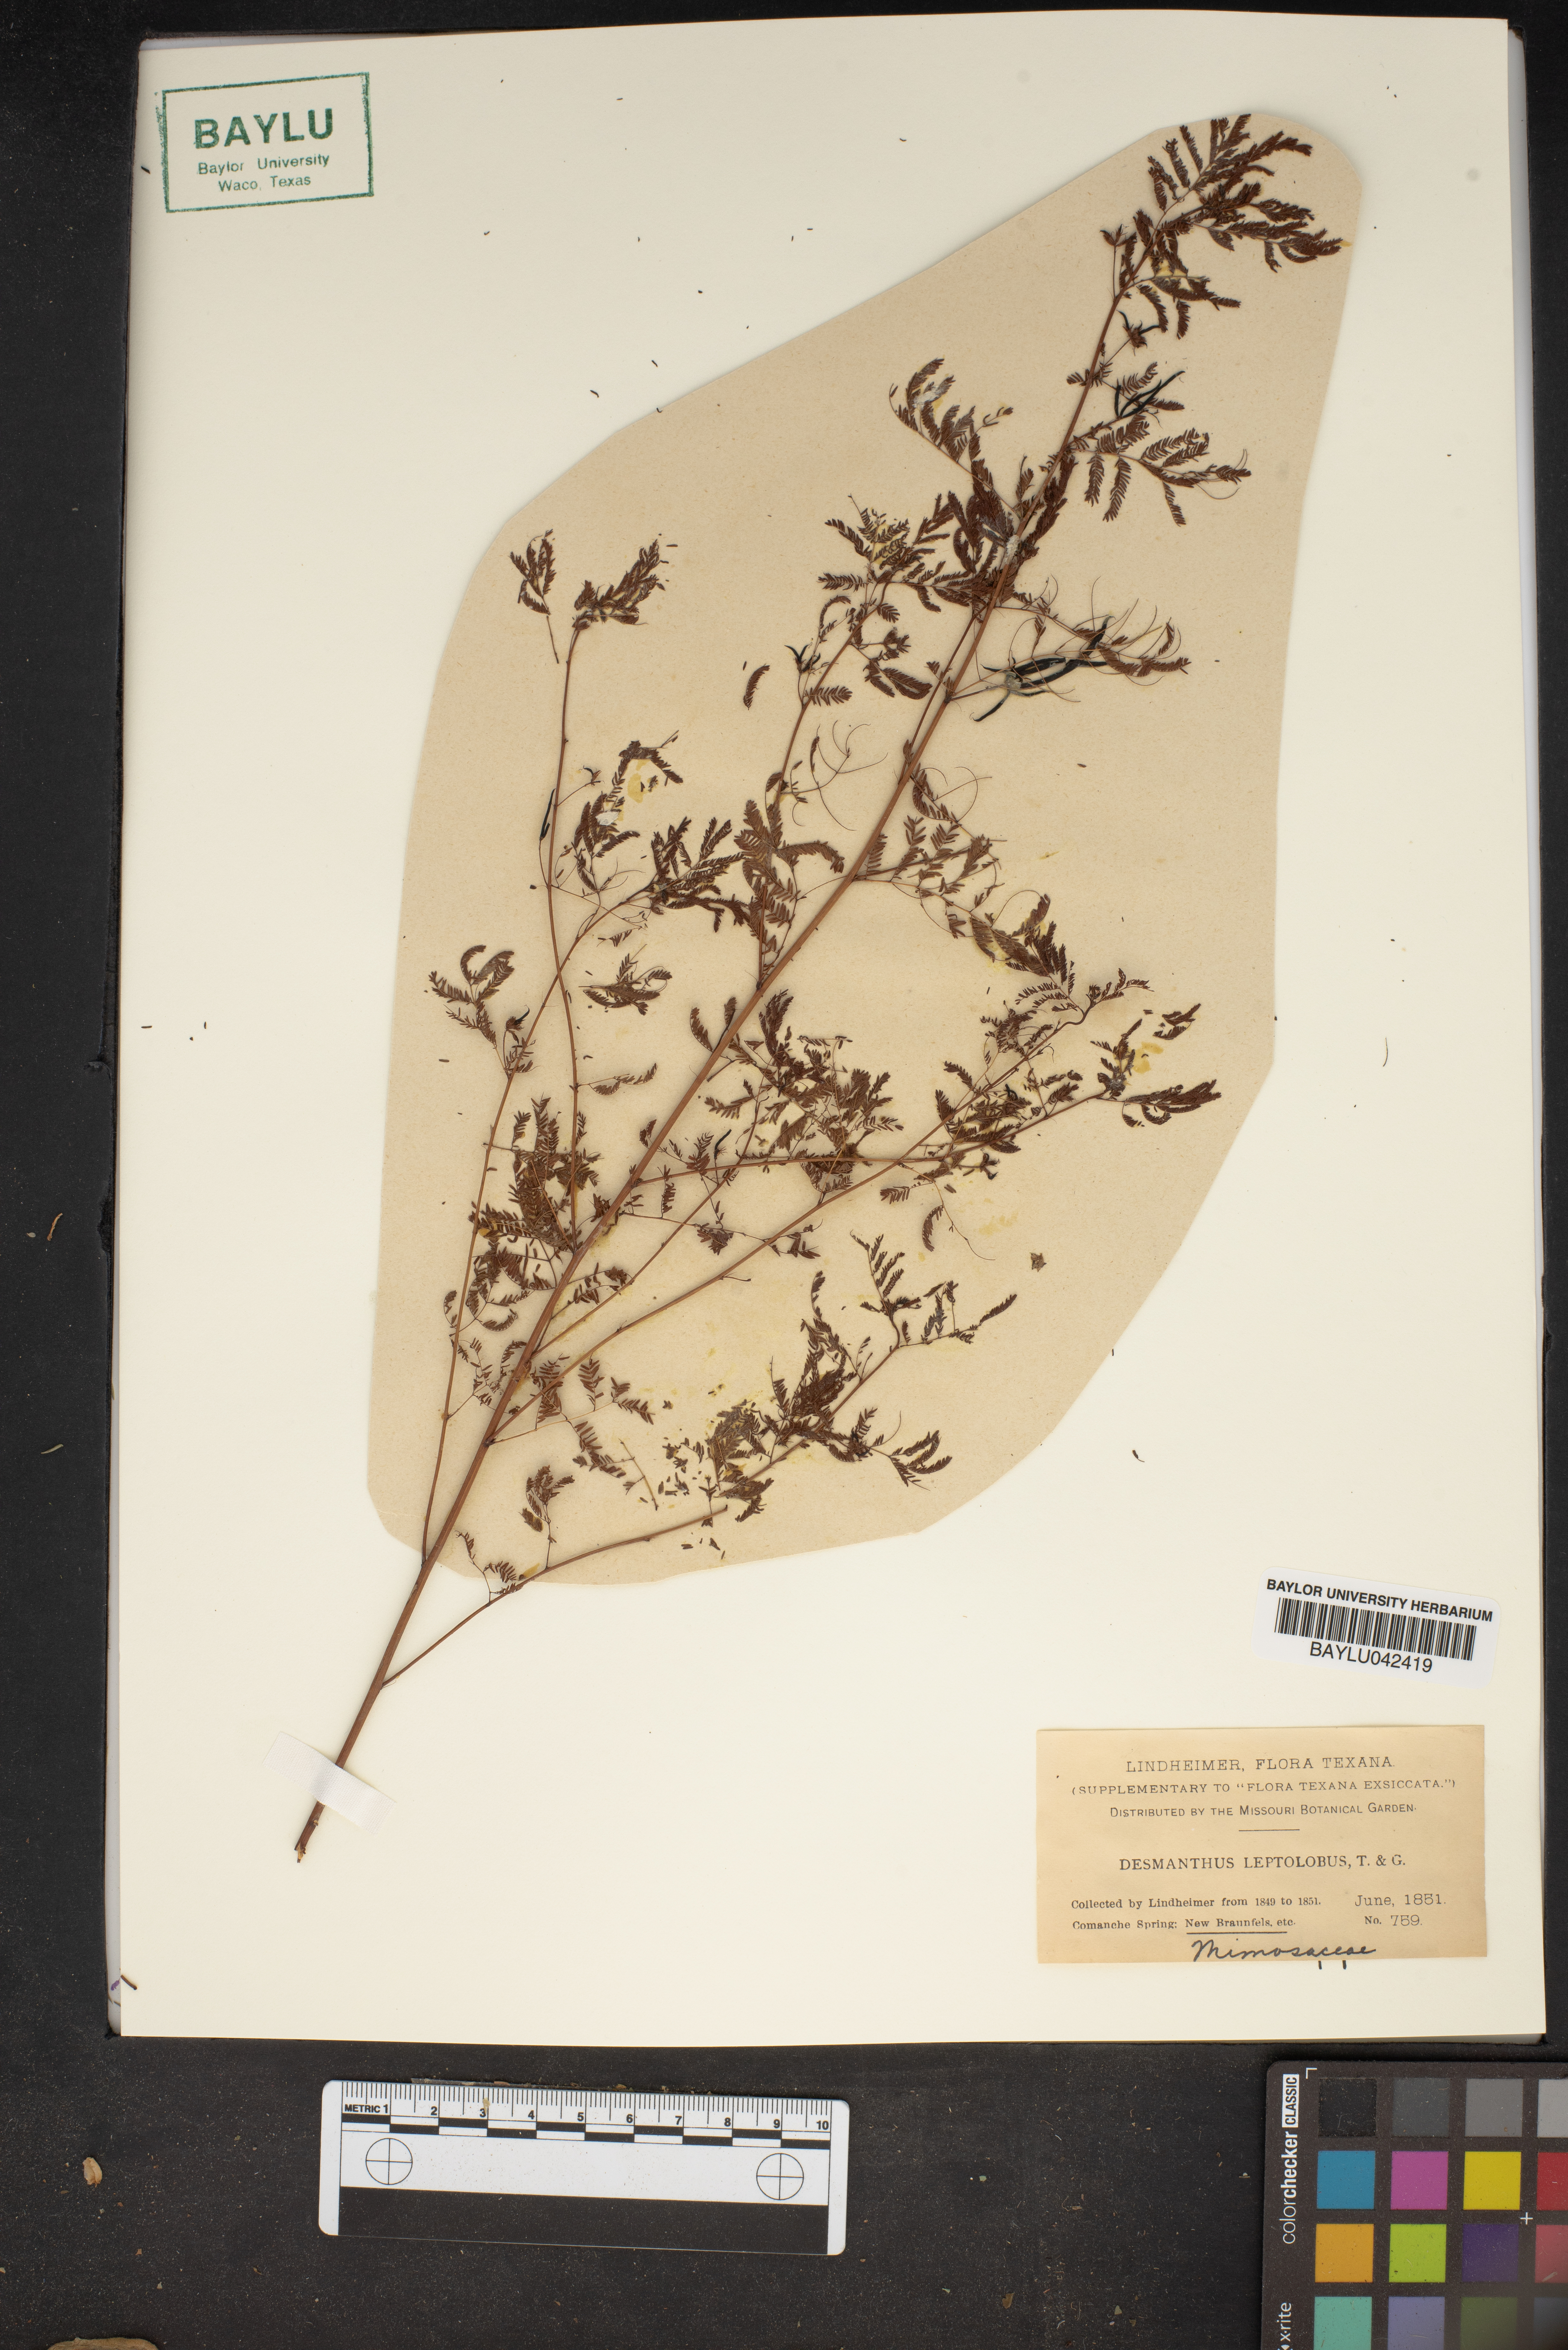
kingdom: Plantae
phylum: Tracheophyta
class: Magnoliopsida
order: Fabales
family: Fabaceae
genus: Desmanthus
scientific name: Desmanthus leptolobus
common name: Prairie-mimosa
